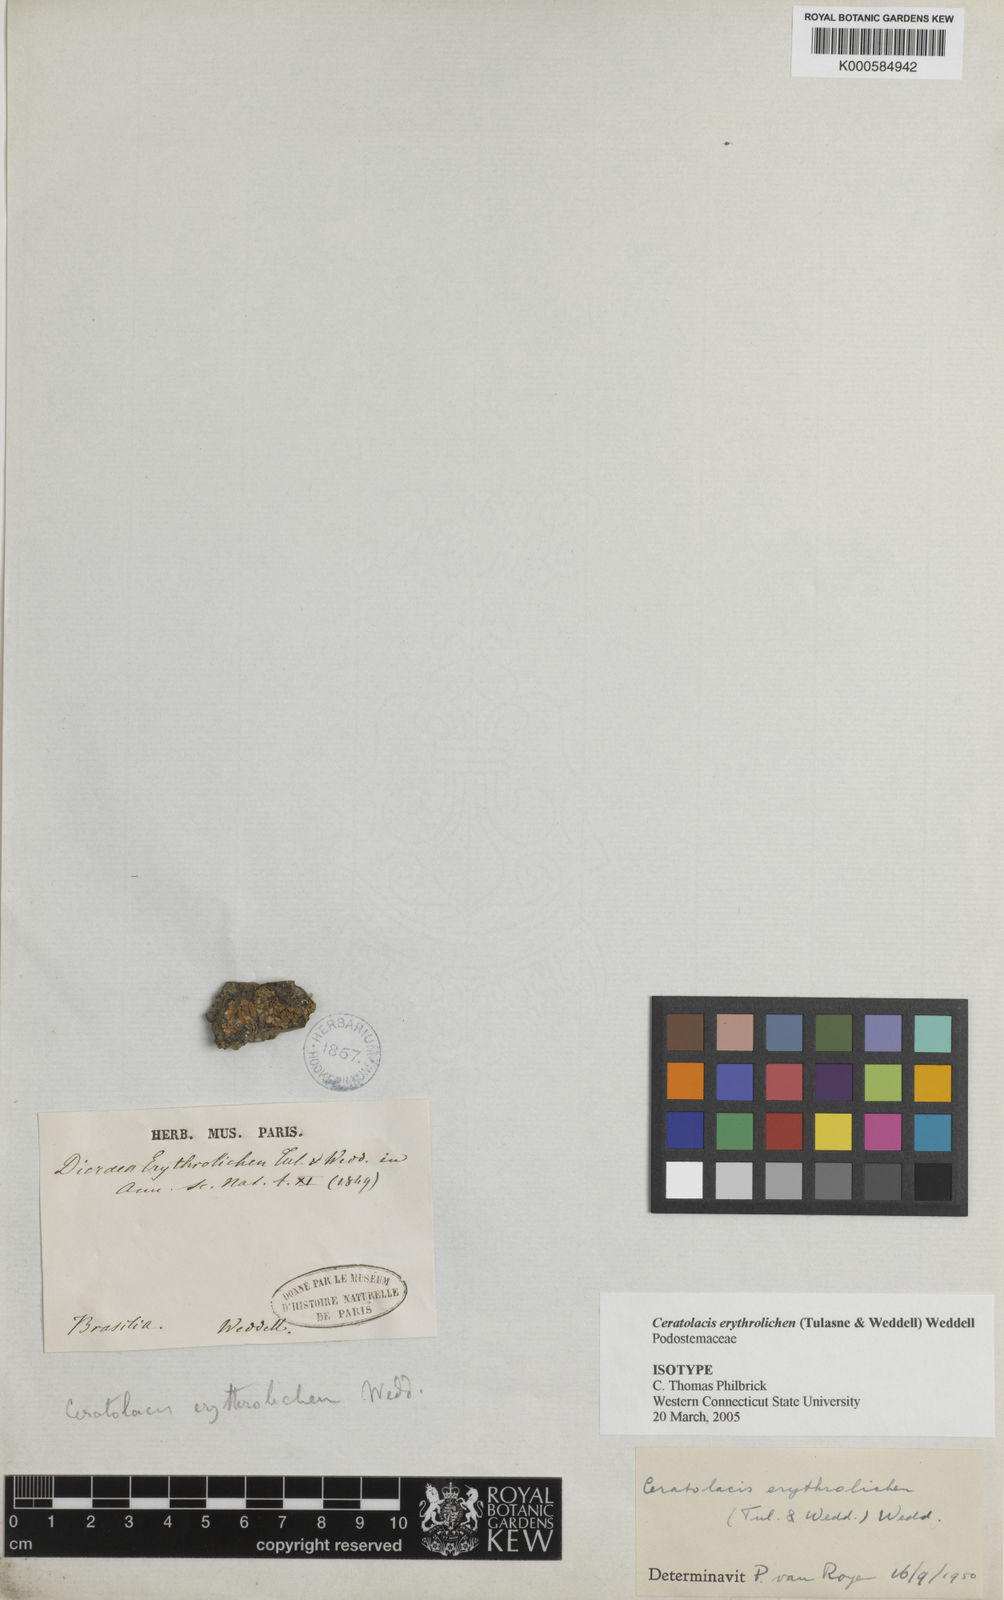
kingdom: Plantae
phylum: Tracheophyta
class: Magnoliopsida
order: Malpighiales
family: Podostemaceae
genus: Ceratolacis
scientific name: Ceratolacis erythrolichen
